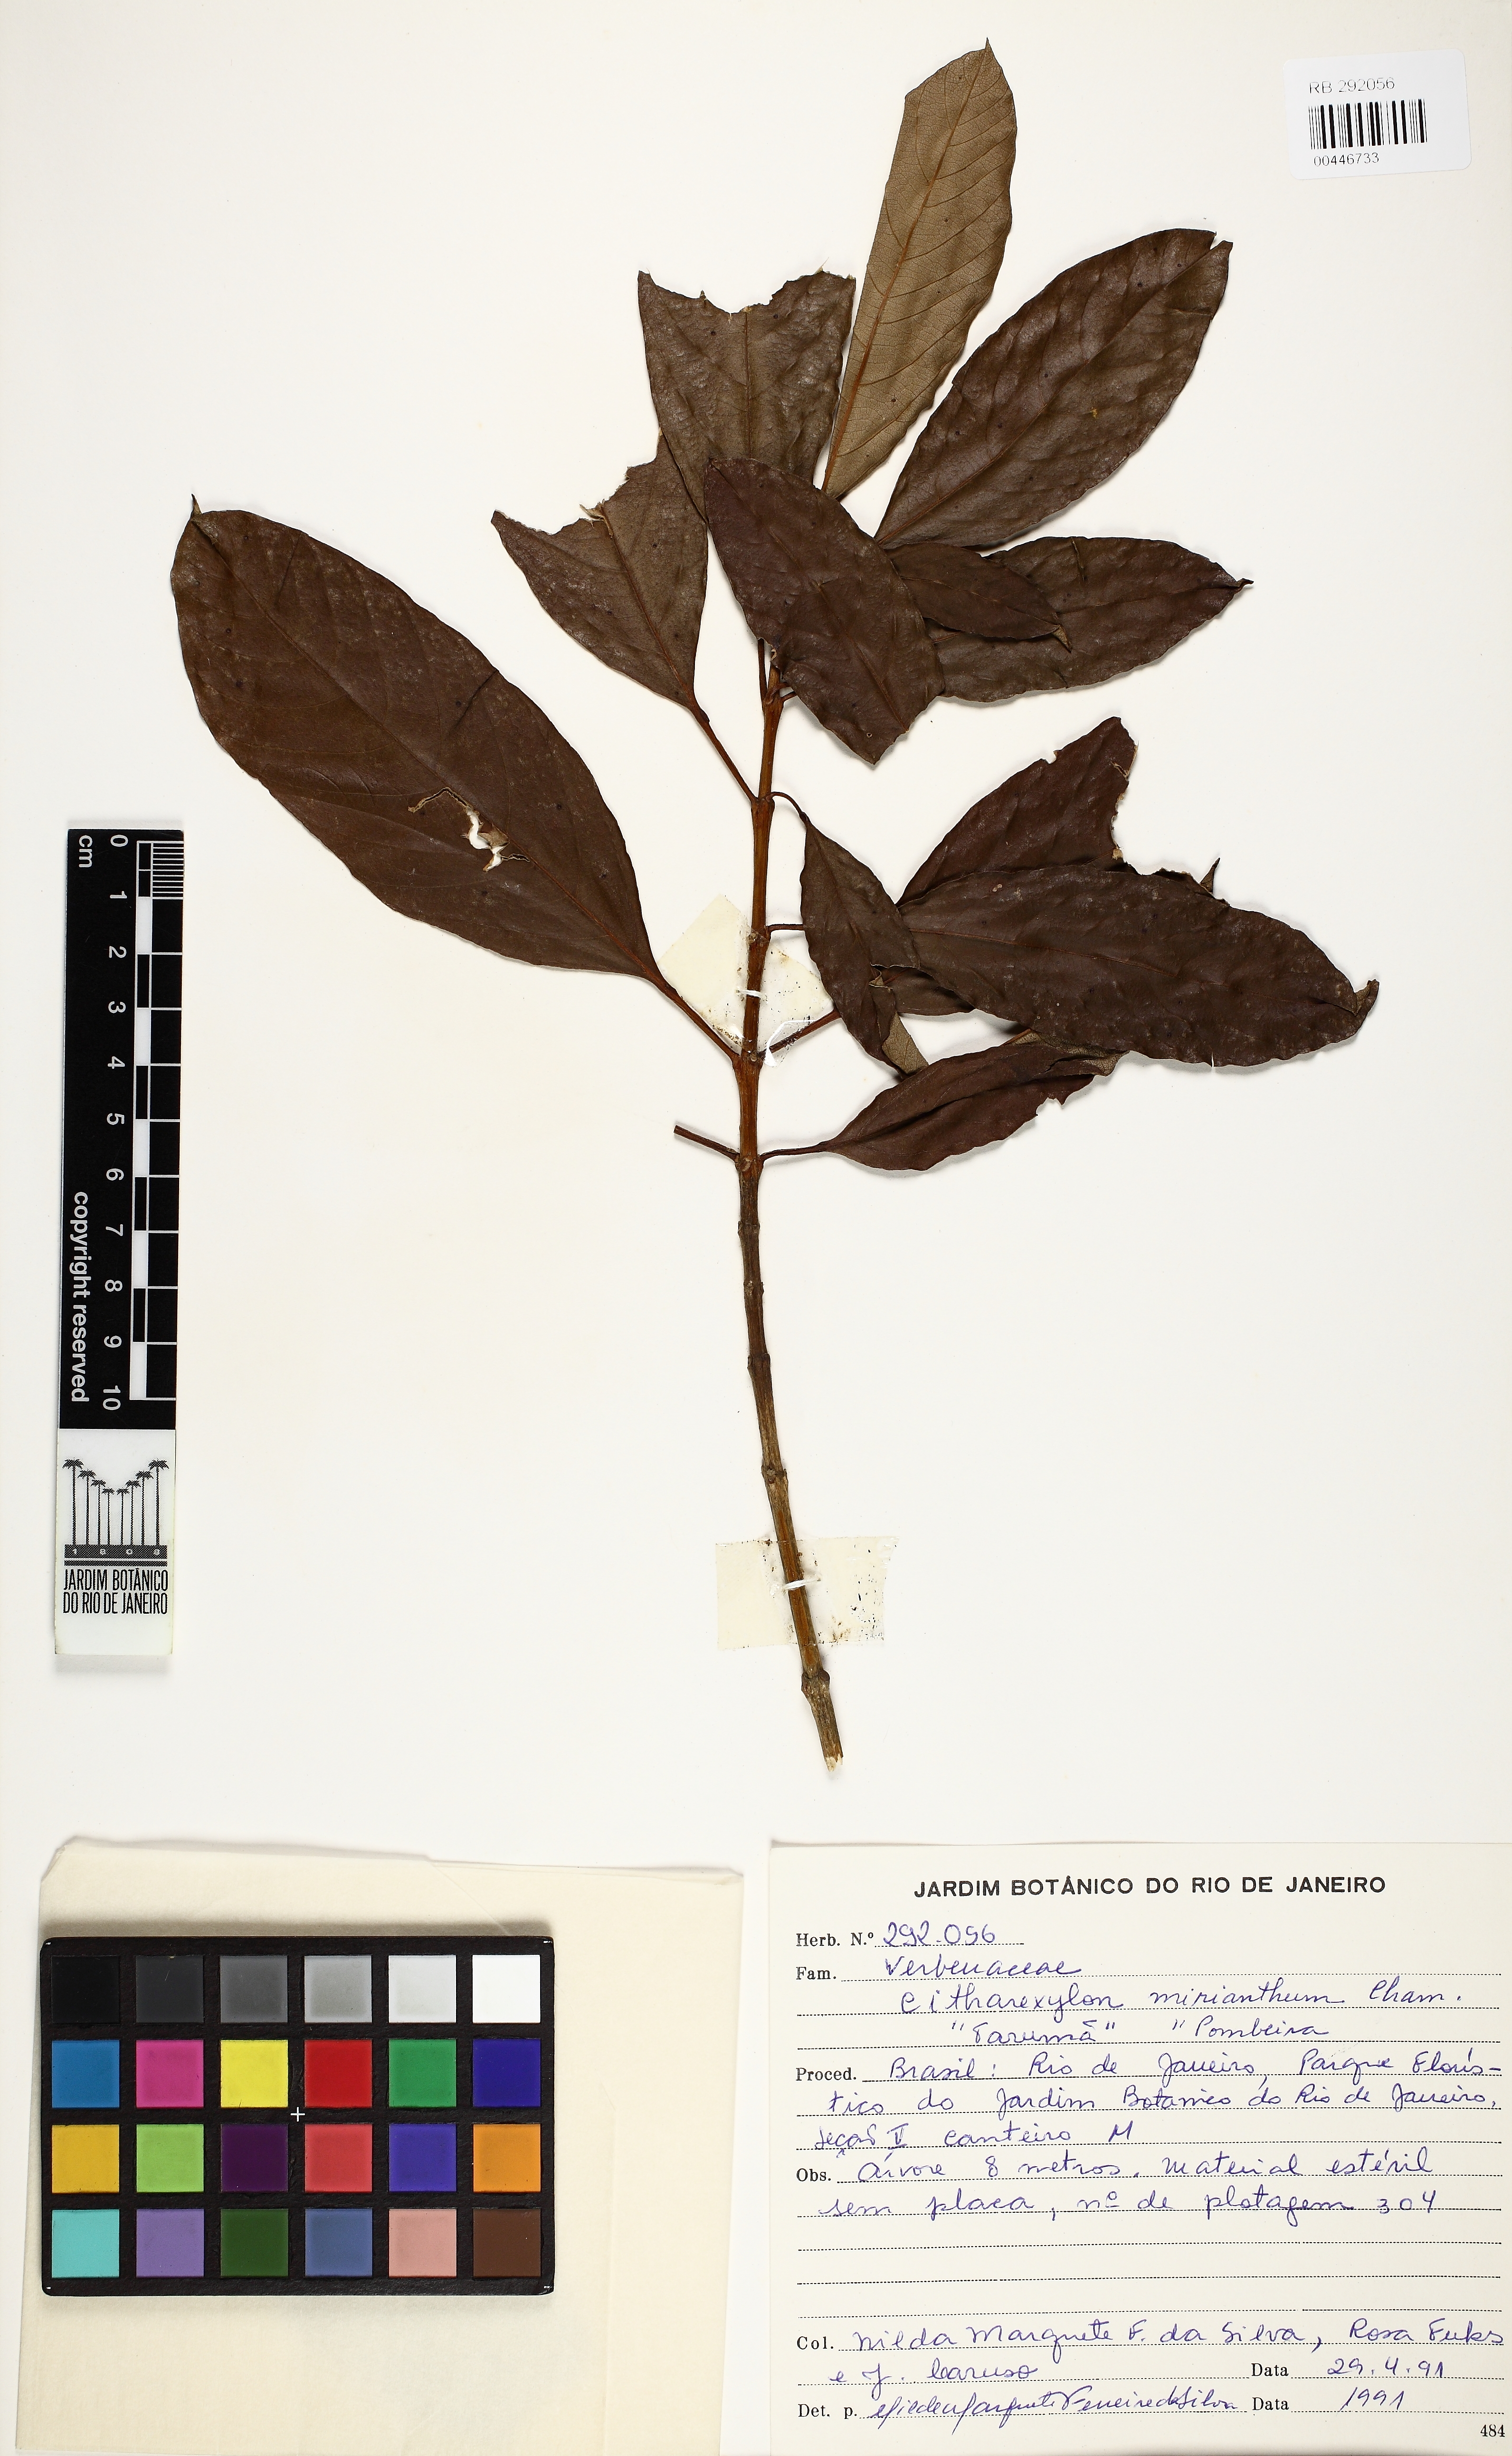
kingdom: Plantae
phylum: Tracheophyta
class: Magnoliopsida
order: Lamiales
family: Verbenaceae
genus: Citharexylum
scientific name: Citharexylum myrianthum
